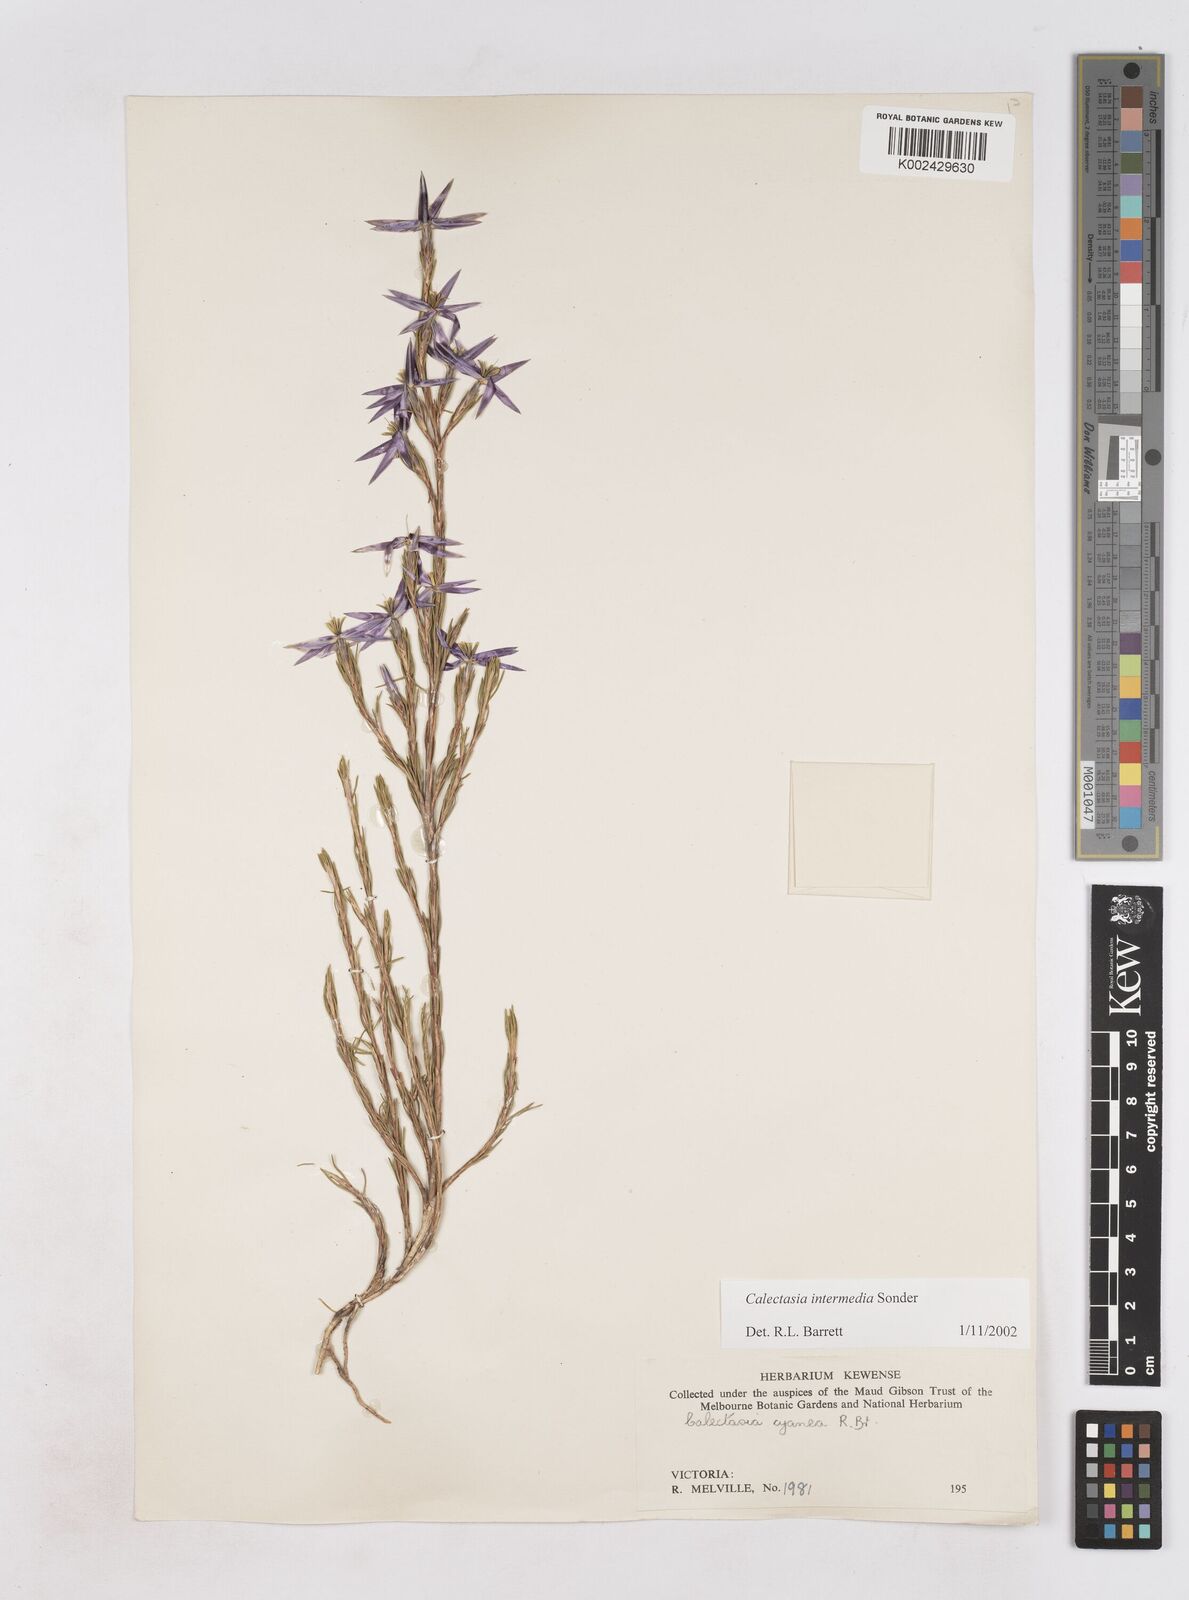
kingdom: Plantae
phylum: Tracheophyta
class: Liliopsida
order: Arecales
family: Dasypogonaceae
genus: Calectasia
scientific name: Calectasia intermedia
